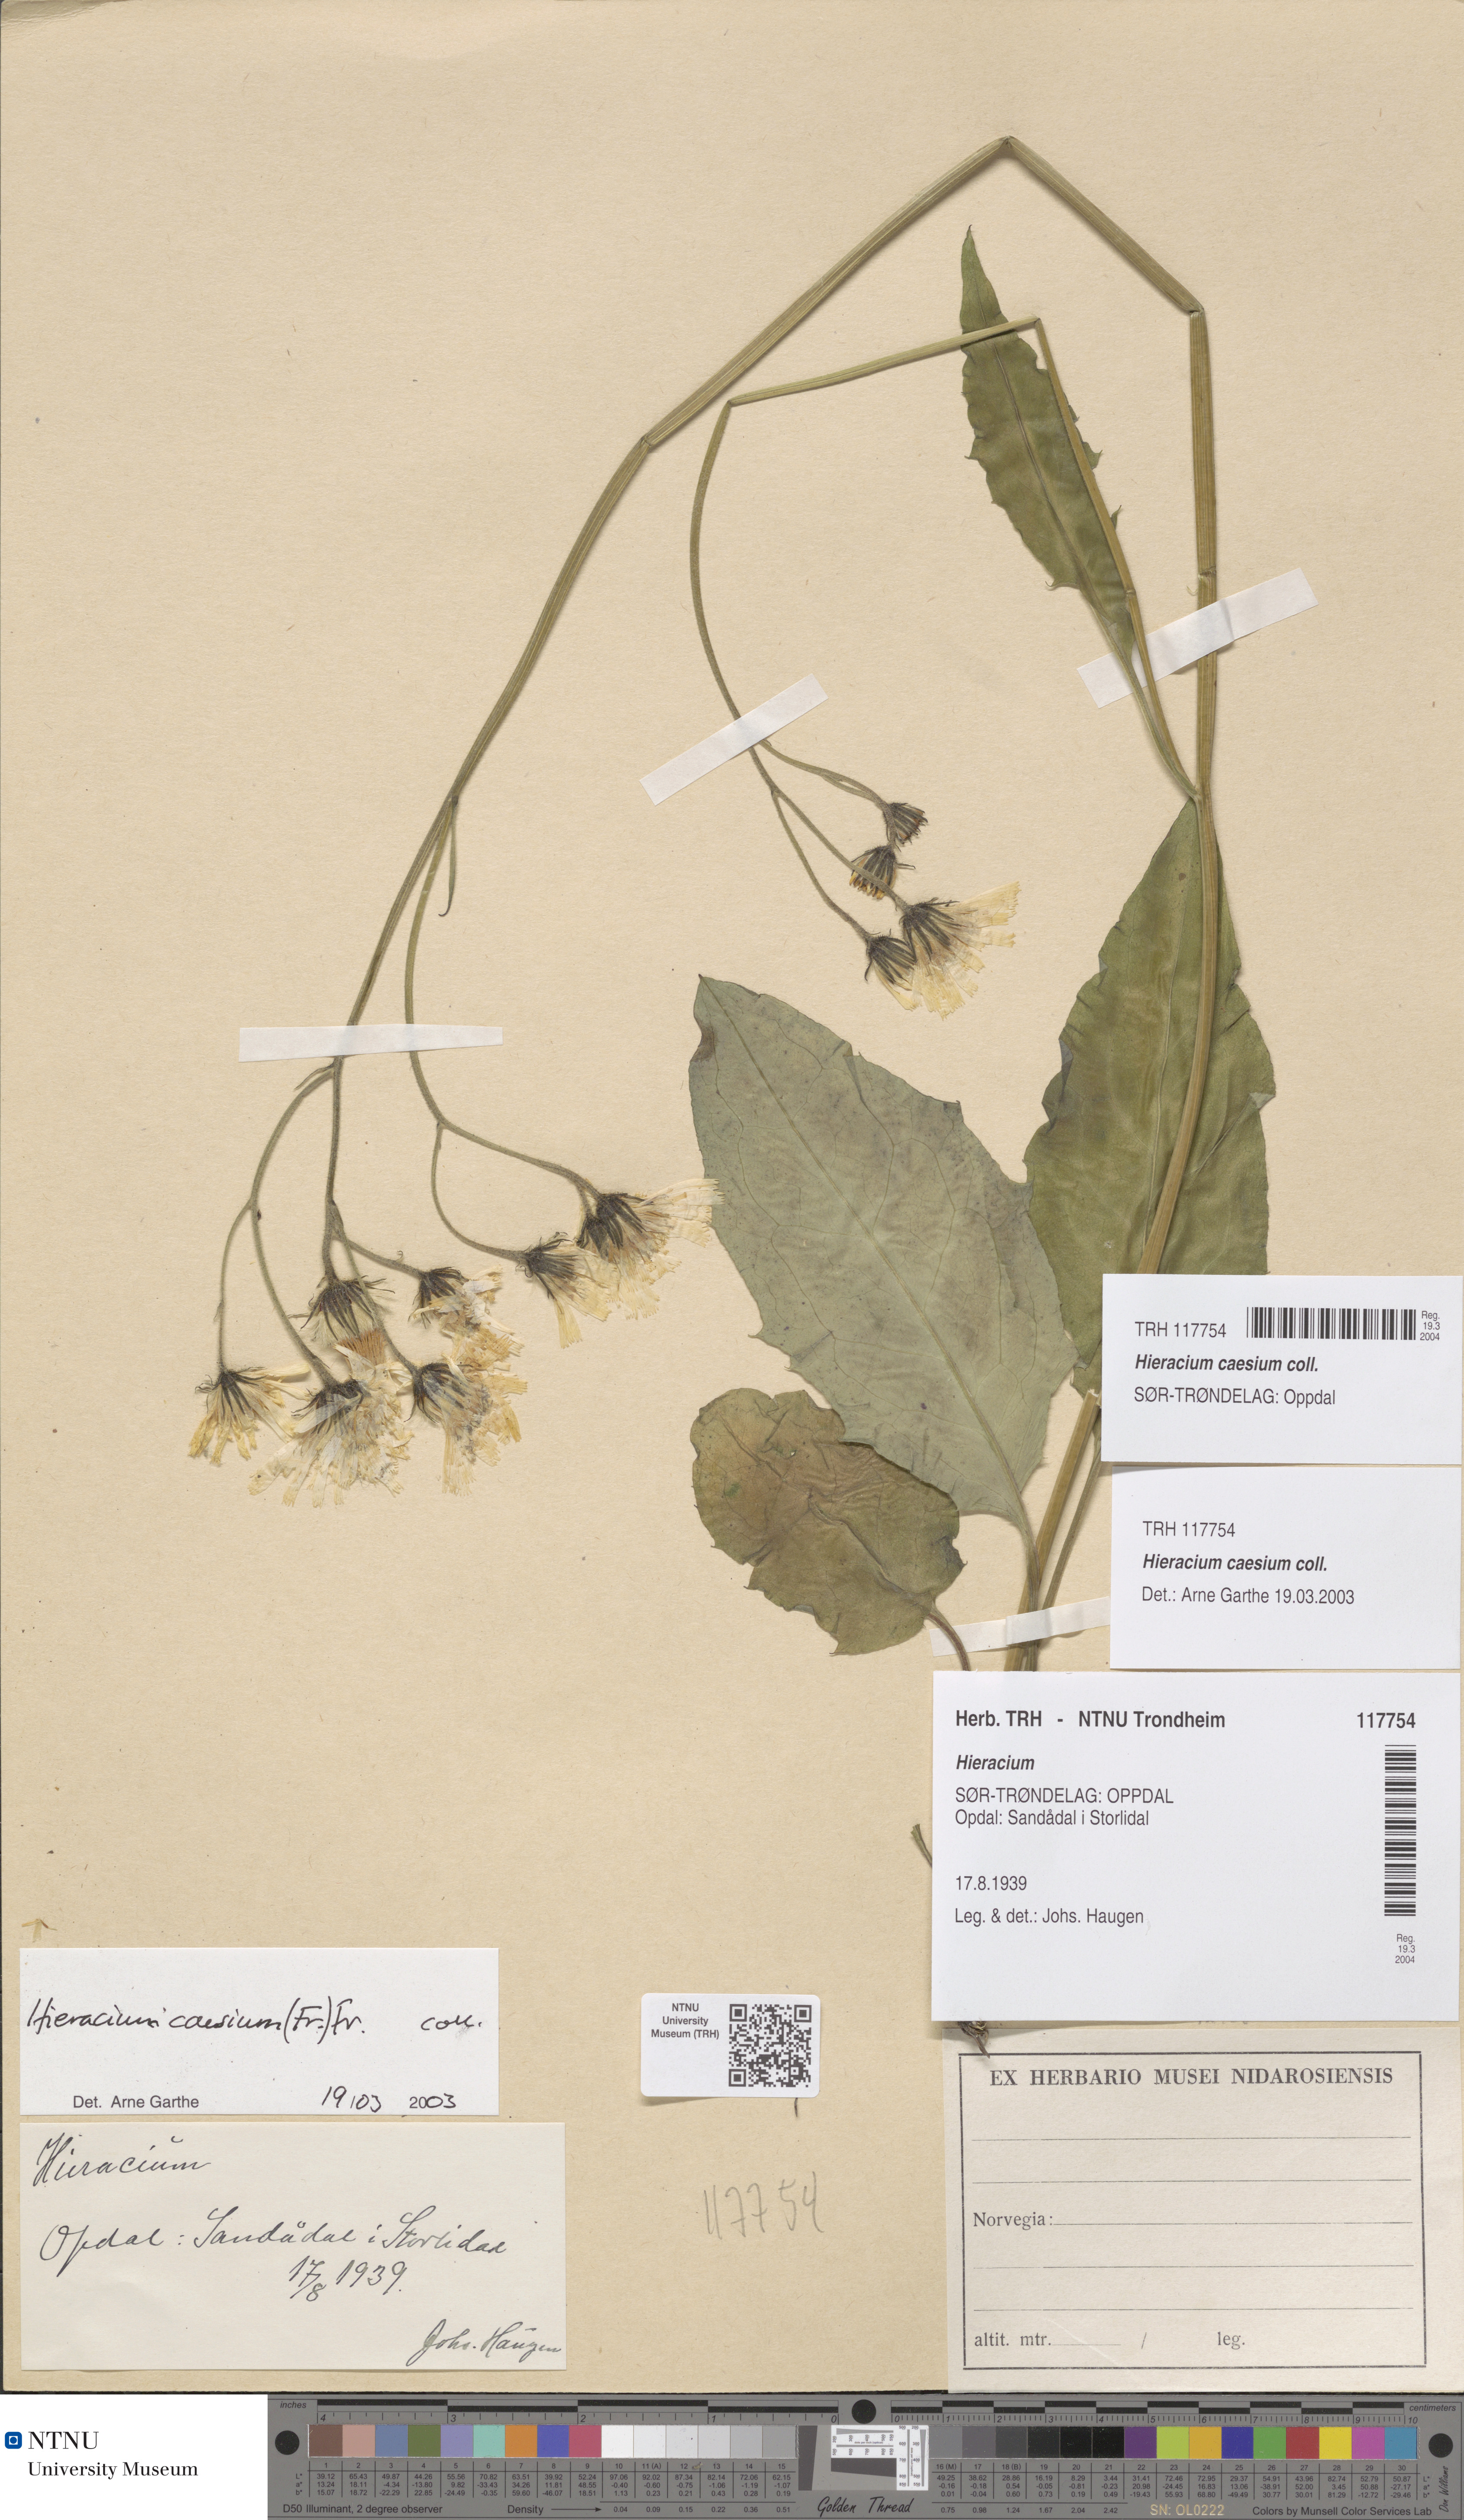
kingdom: Plantae
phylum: Tracheophyta
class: Magnoliopsida
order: Asterales
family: Asteraceae
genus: Hieracium
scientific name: Hieracium caesium
